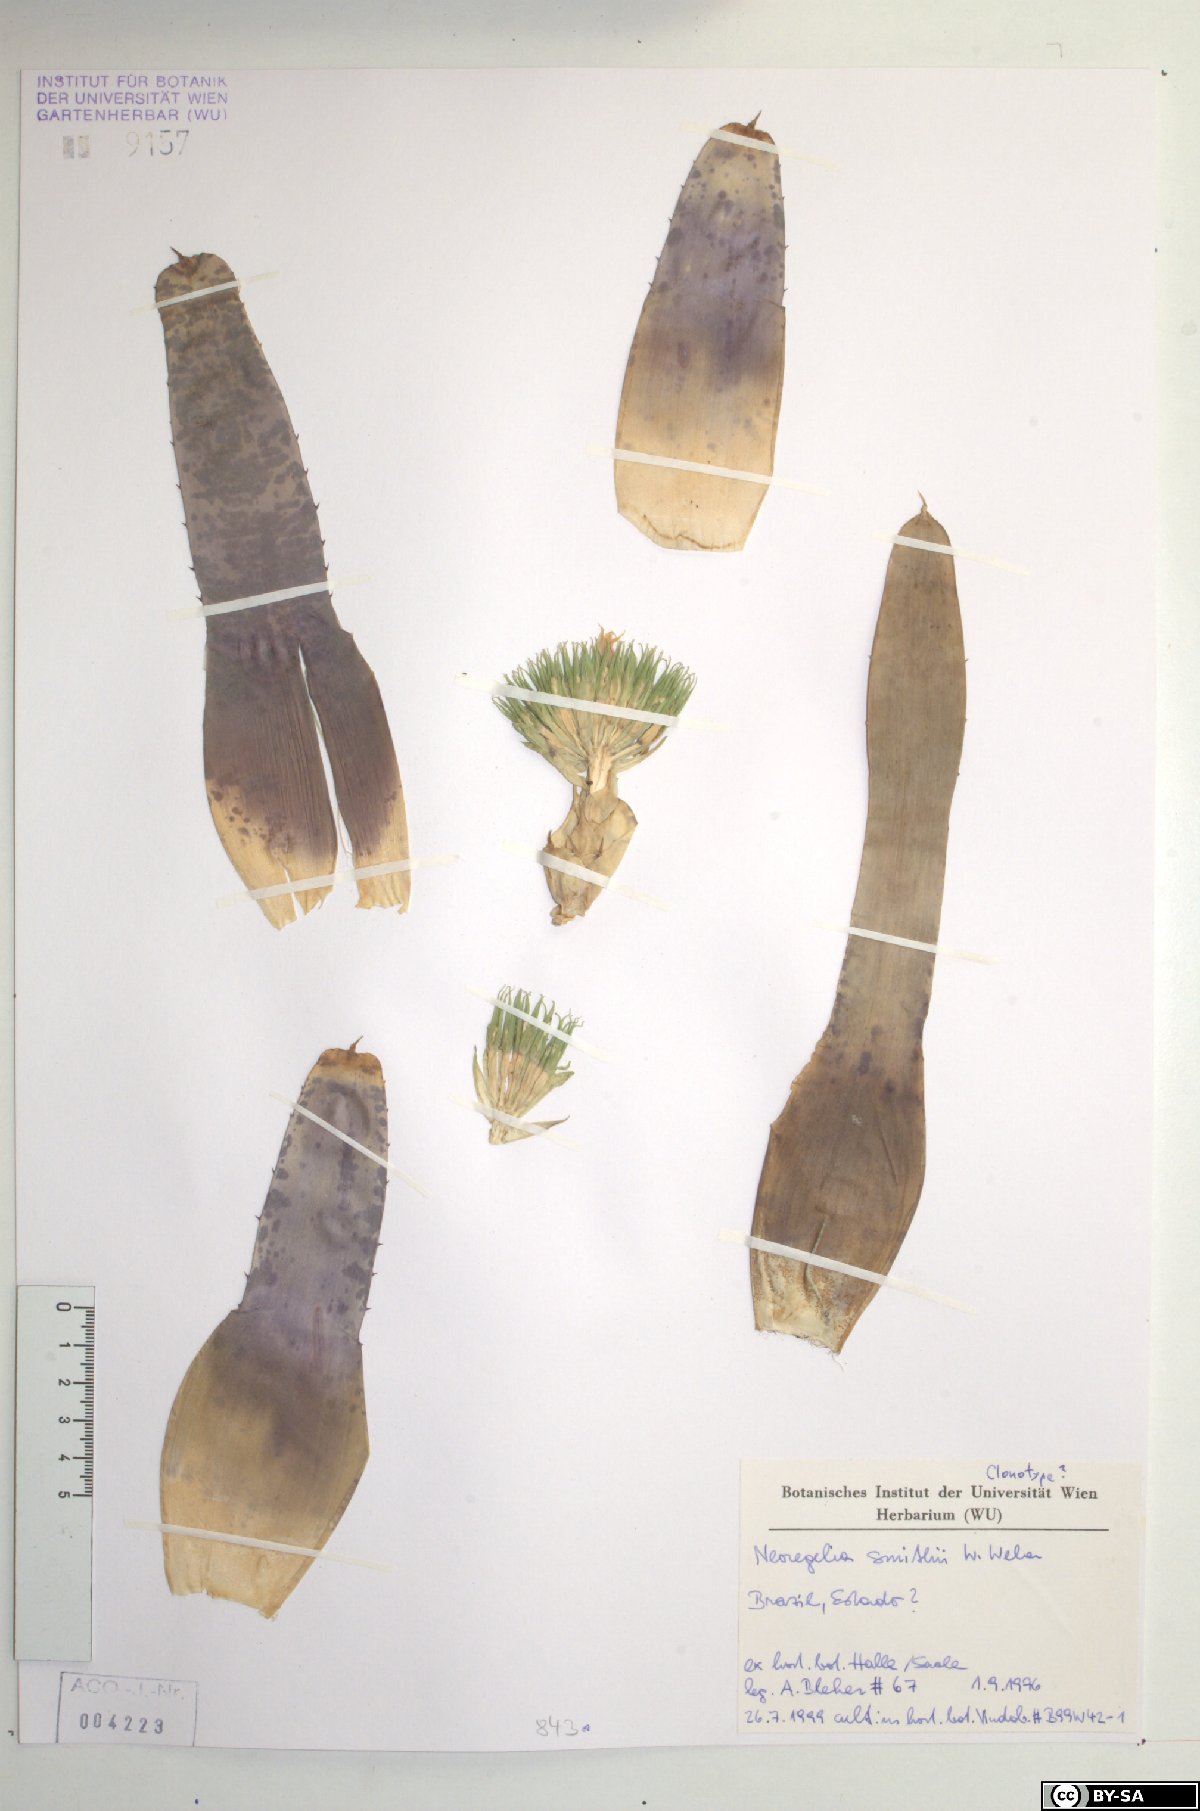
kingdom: Plantae
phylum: Tracheophyta
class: Liliopsida
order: Poales
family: Bromeliaceae
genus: Neoregelia
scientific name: Neoregelia smithii
